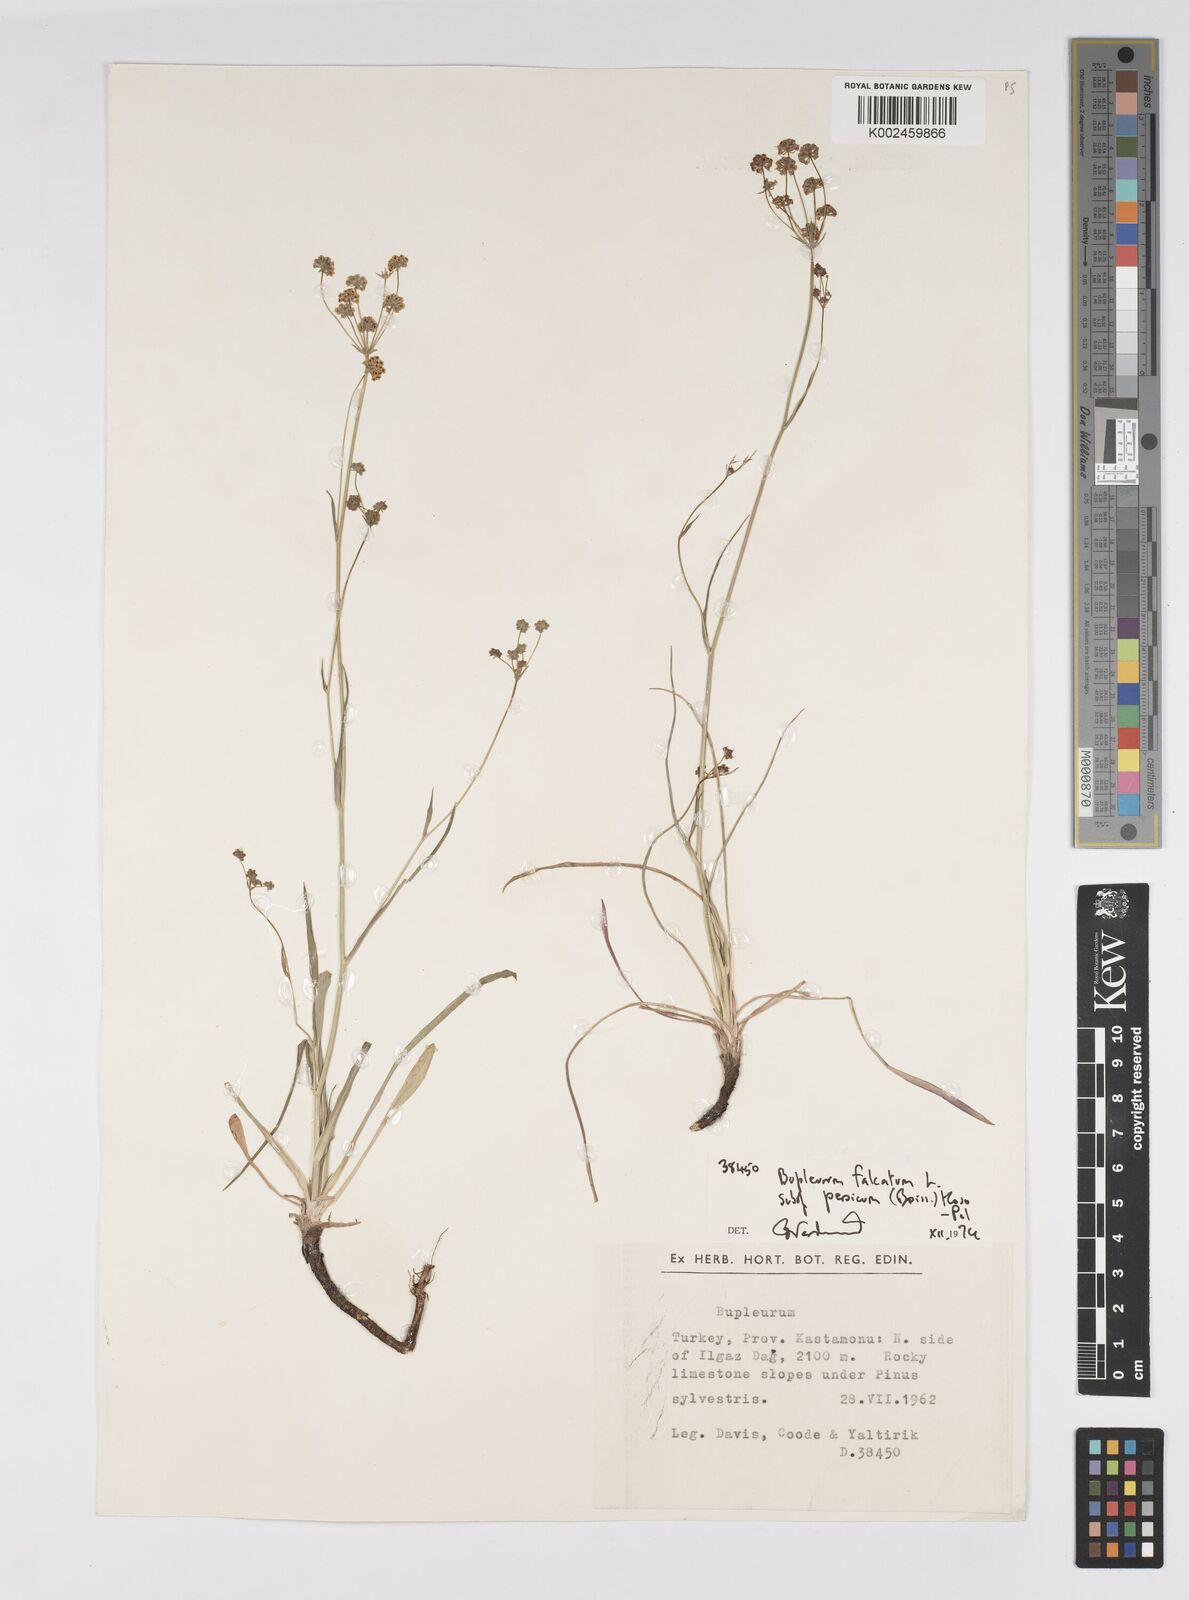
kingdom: Plantae
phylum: Tracheophyta
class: Magnoliopsida
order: Apiales
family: Apiaceae
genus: Bupleurum
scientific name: Bupleurum falcatum
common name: Sickle-leaved hare's-ear
